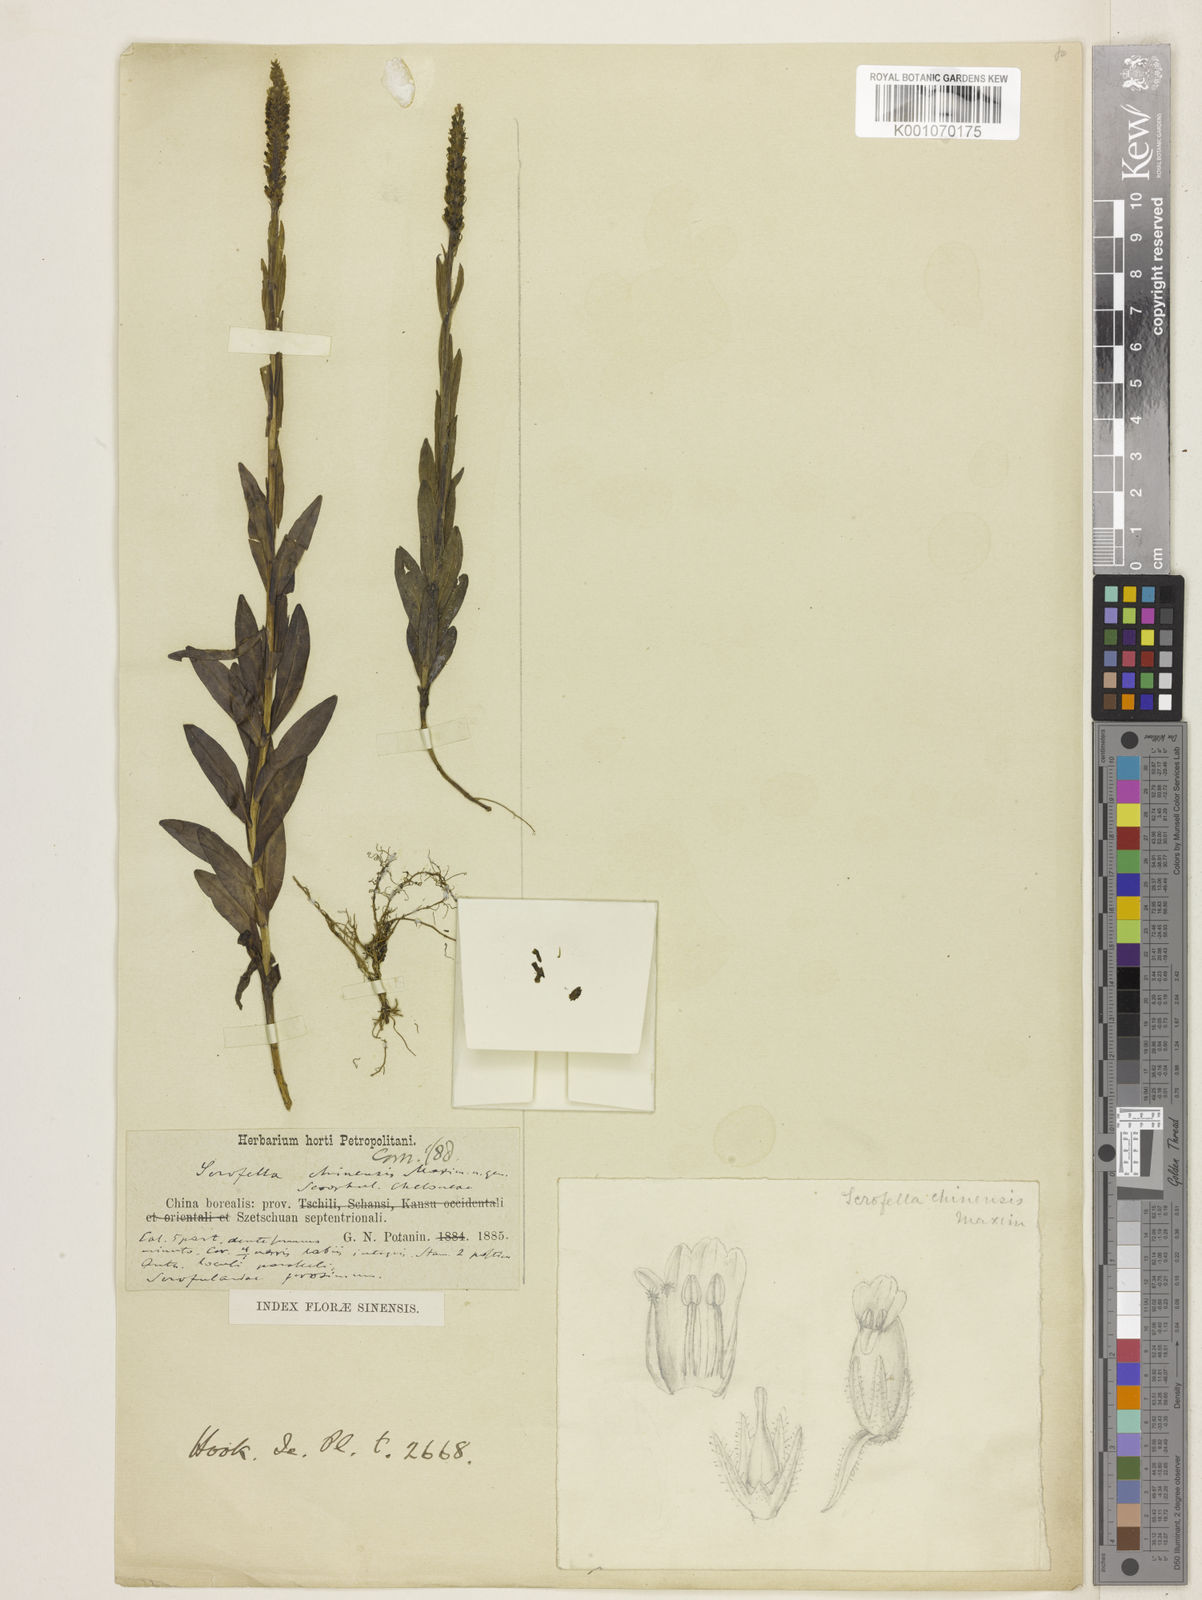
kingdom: Plantae
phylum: Tracheophyta
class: Magnoliopsida
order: Lamiales
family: Plantaginaceae
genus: Scrofella
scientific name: Scrofella chinensis
